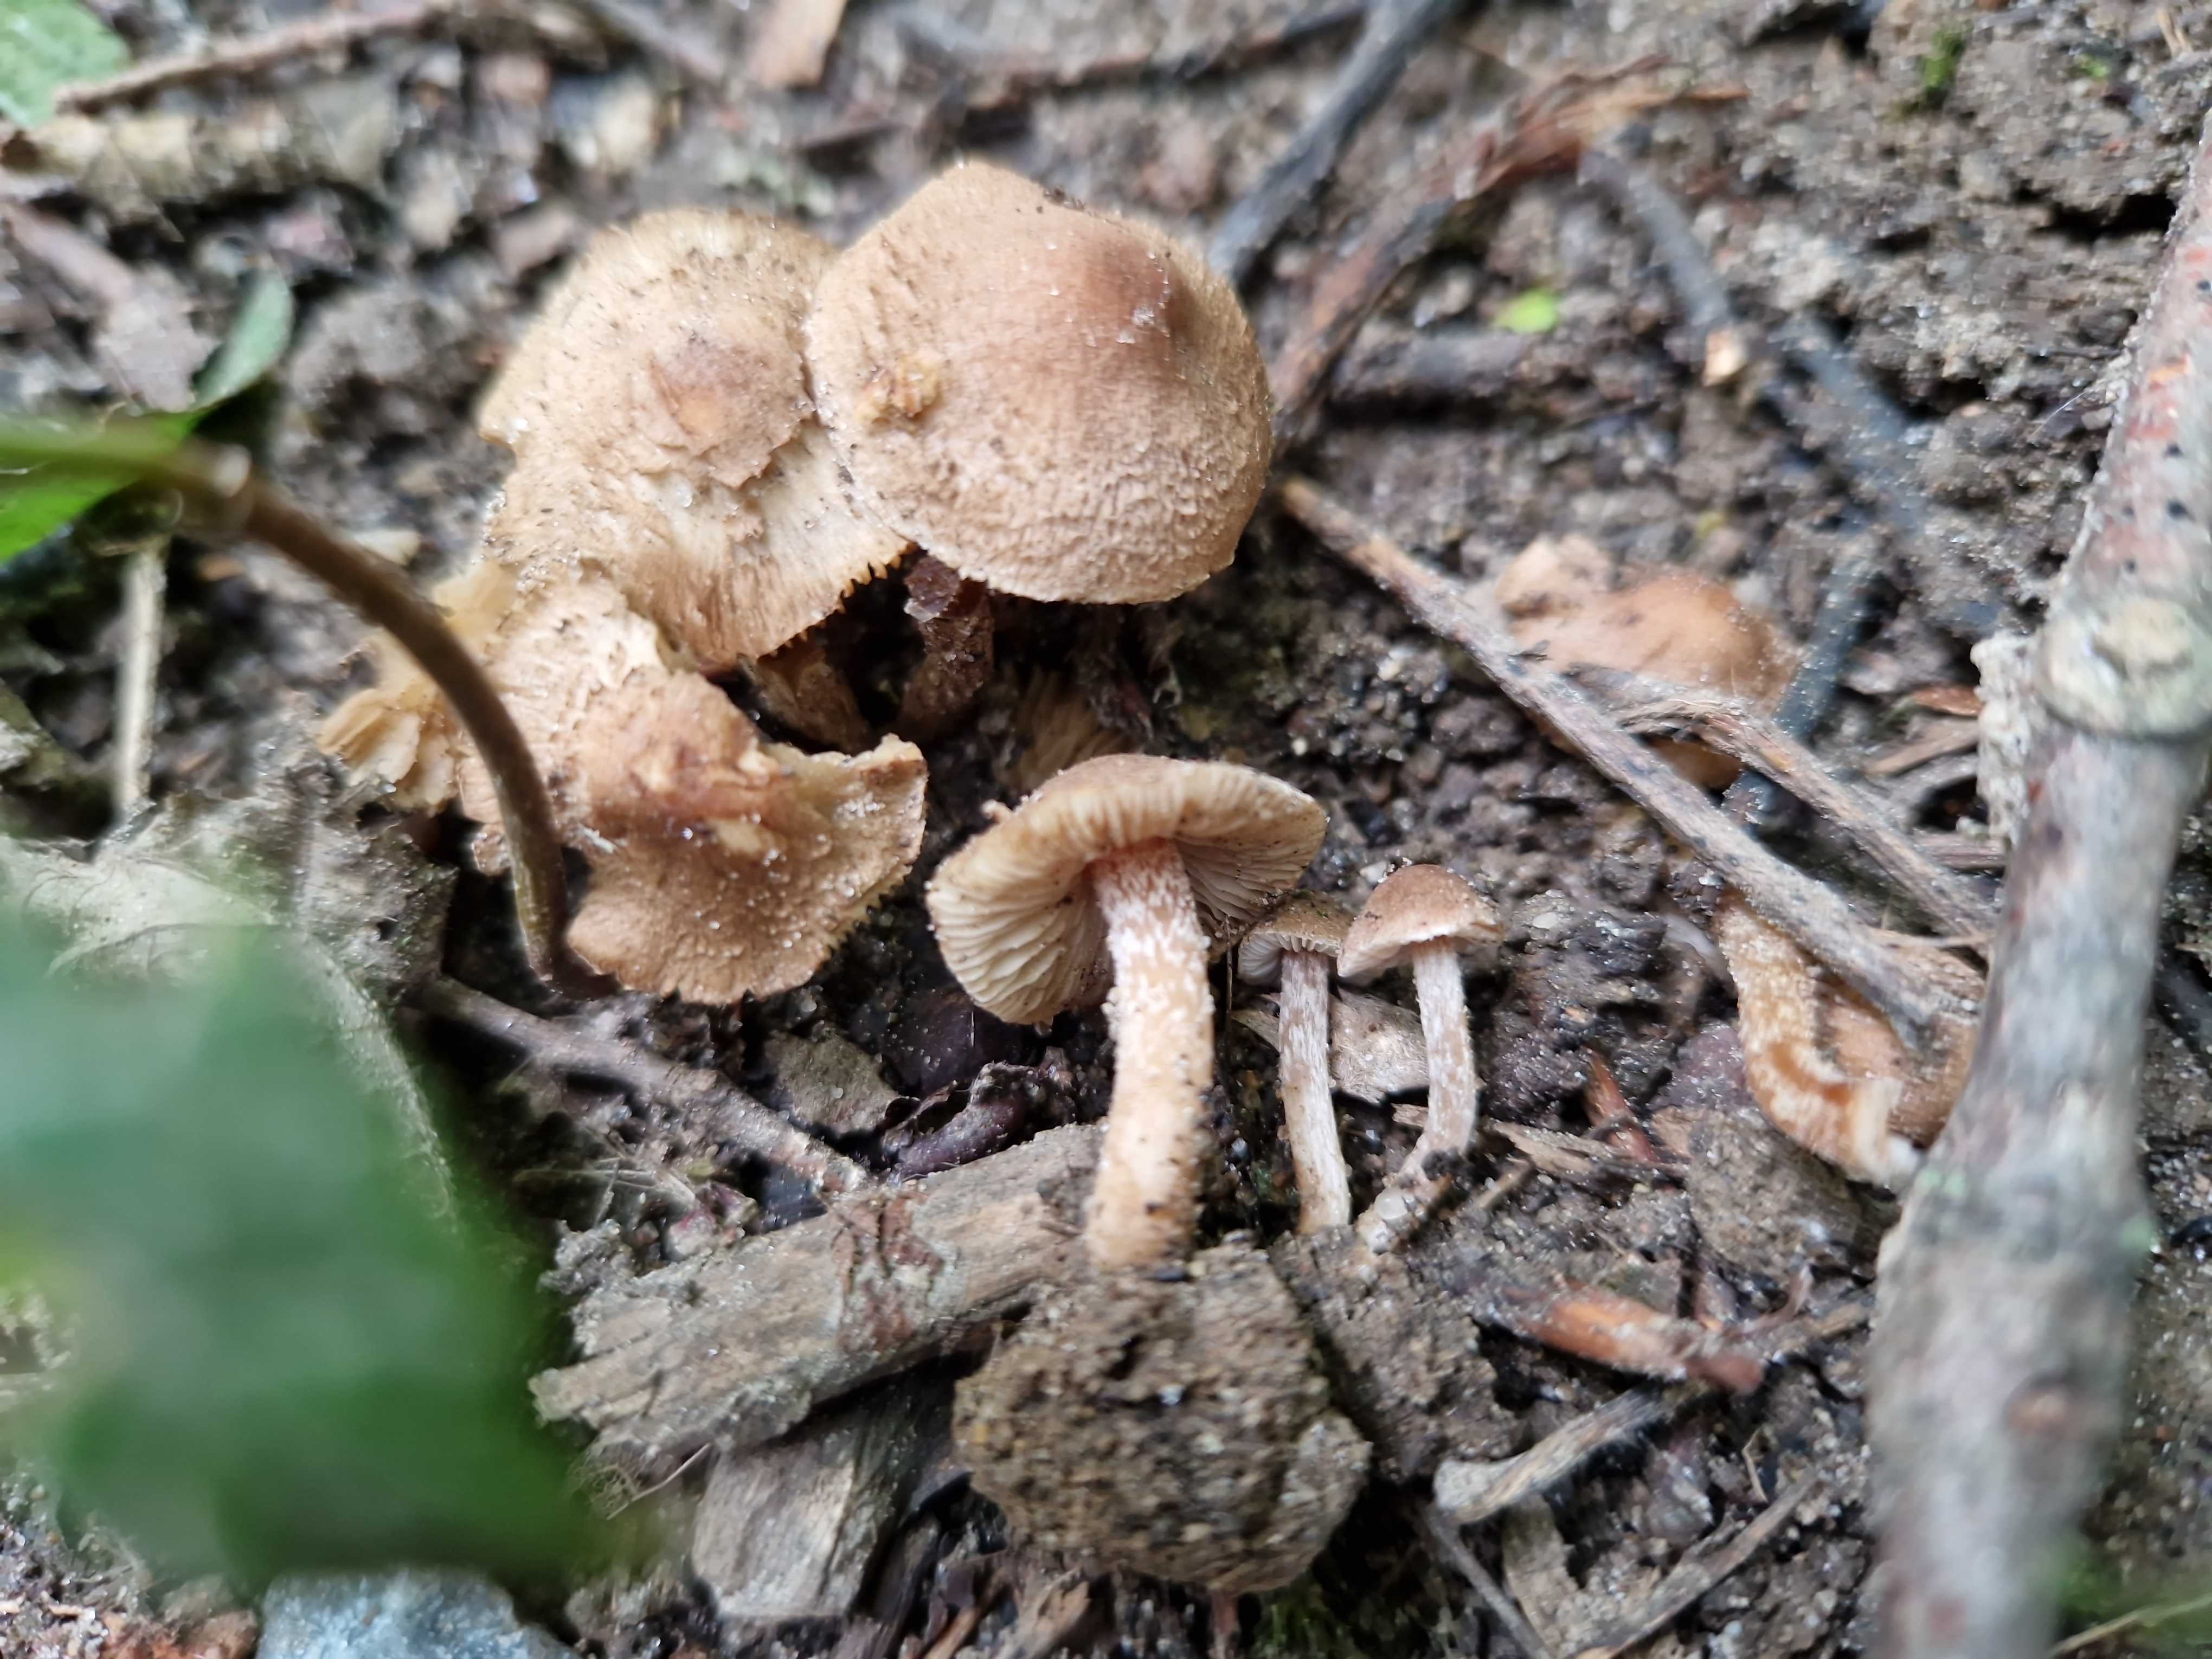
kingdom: Fungi
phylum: Basidiomycota
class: Agaricomycetes
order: Agaricales
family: Inocybaceae
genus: Inocybe
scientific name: Inocybe
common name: trævlhat
